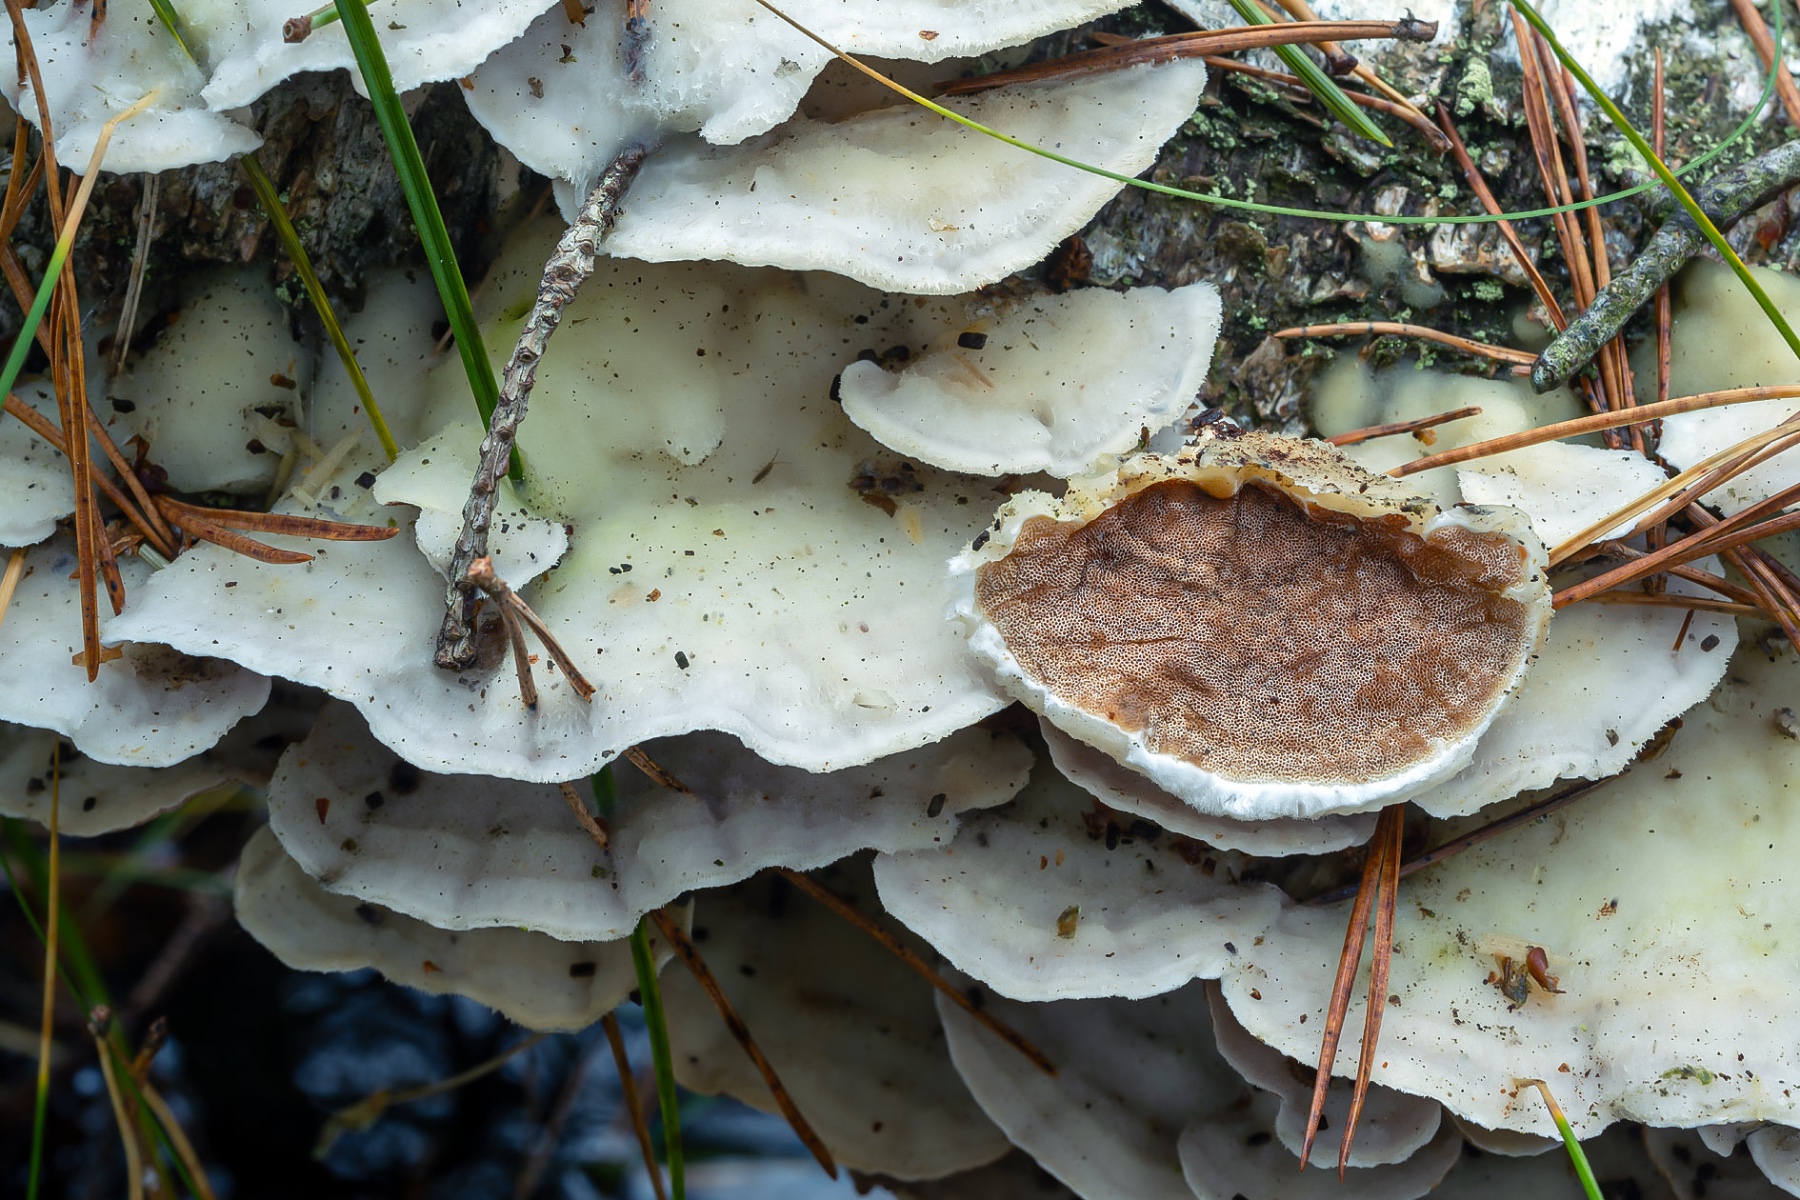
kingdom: Fungi
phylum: Basidiomycota
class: Agaricomycetes
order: Polyporales
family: Irpicaceae
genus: Vitreoporus
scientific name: Vitreoporus dichrous
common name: tofarvet foldporesvamp
